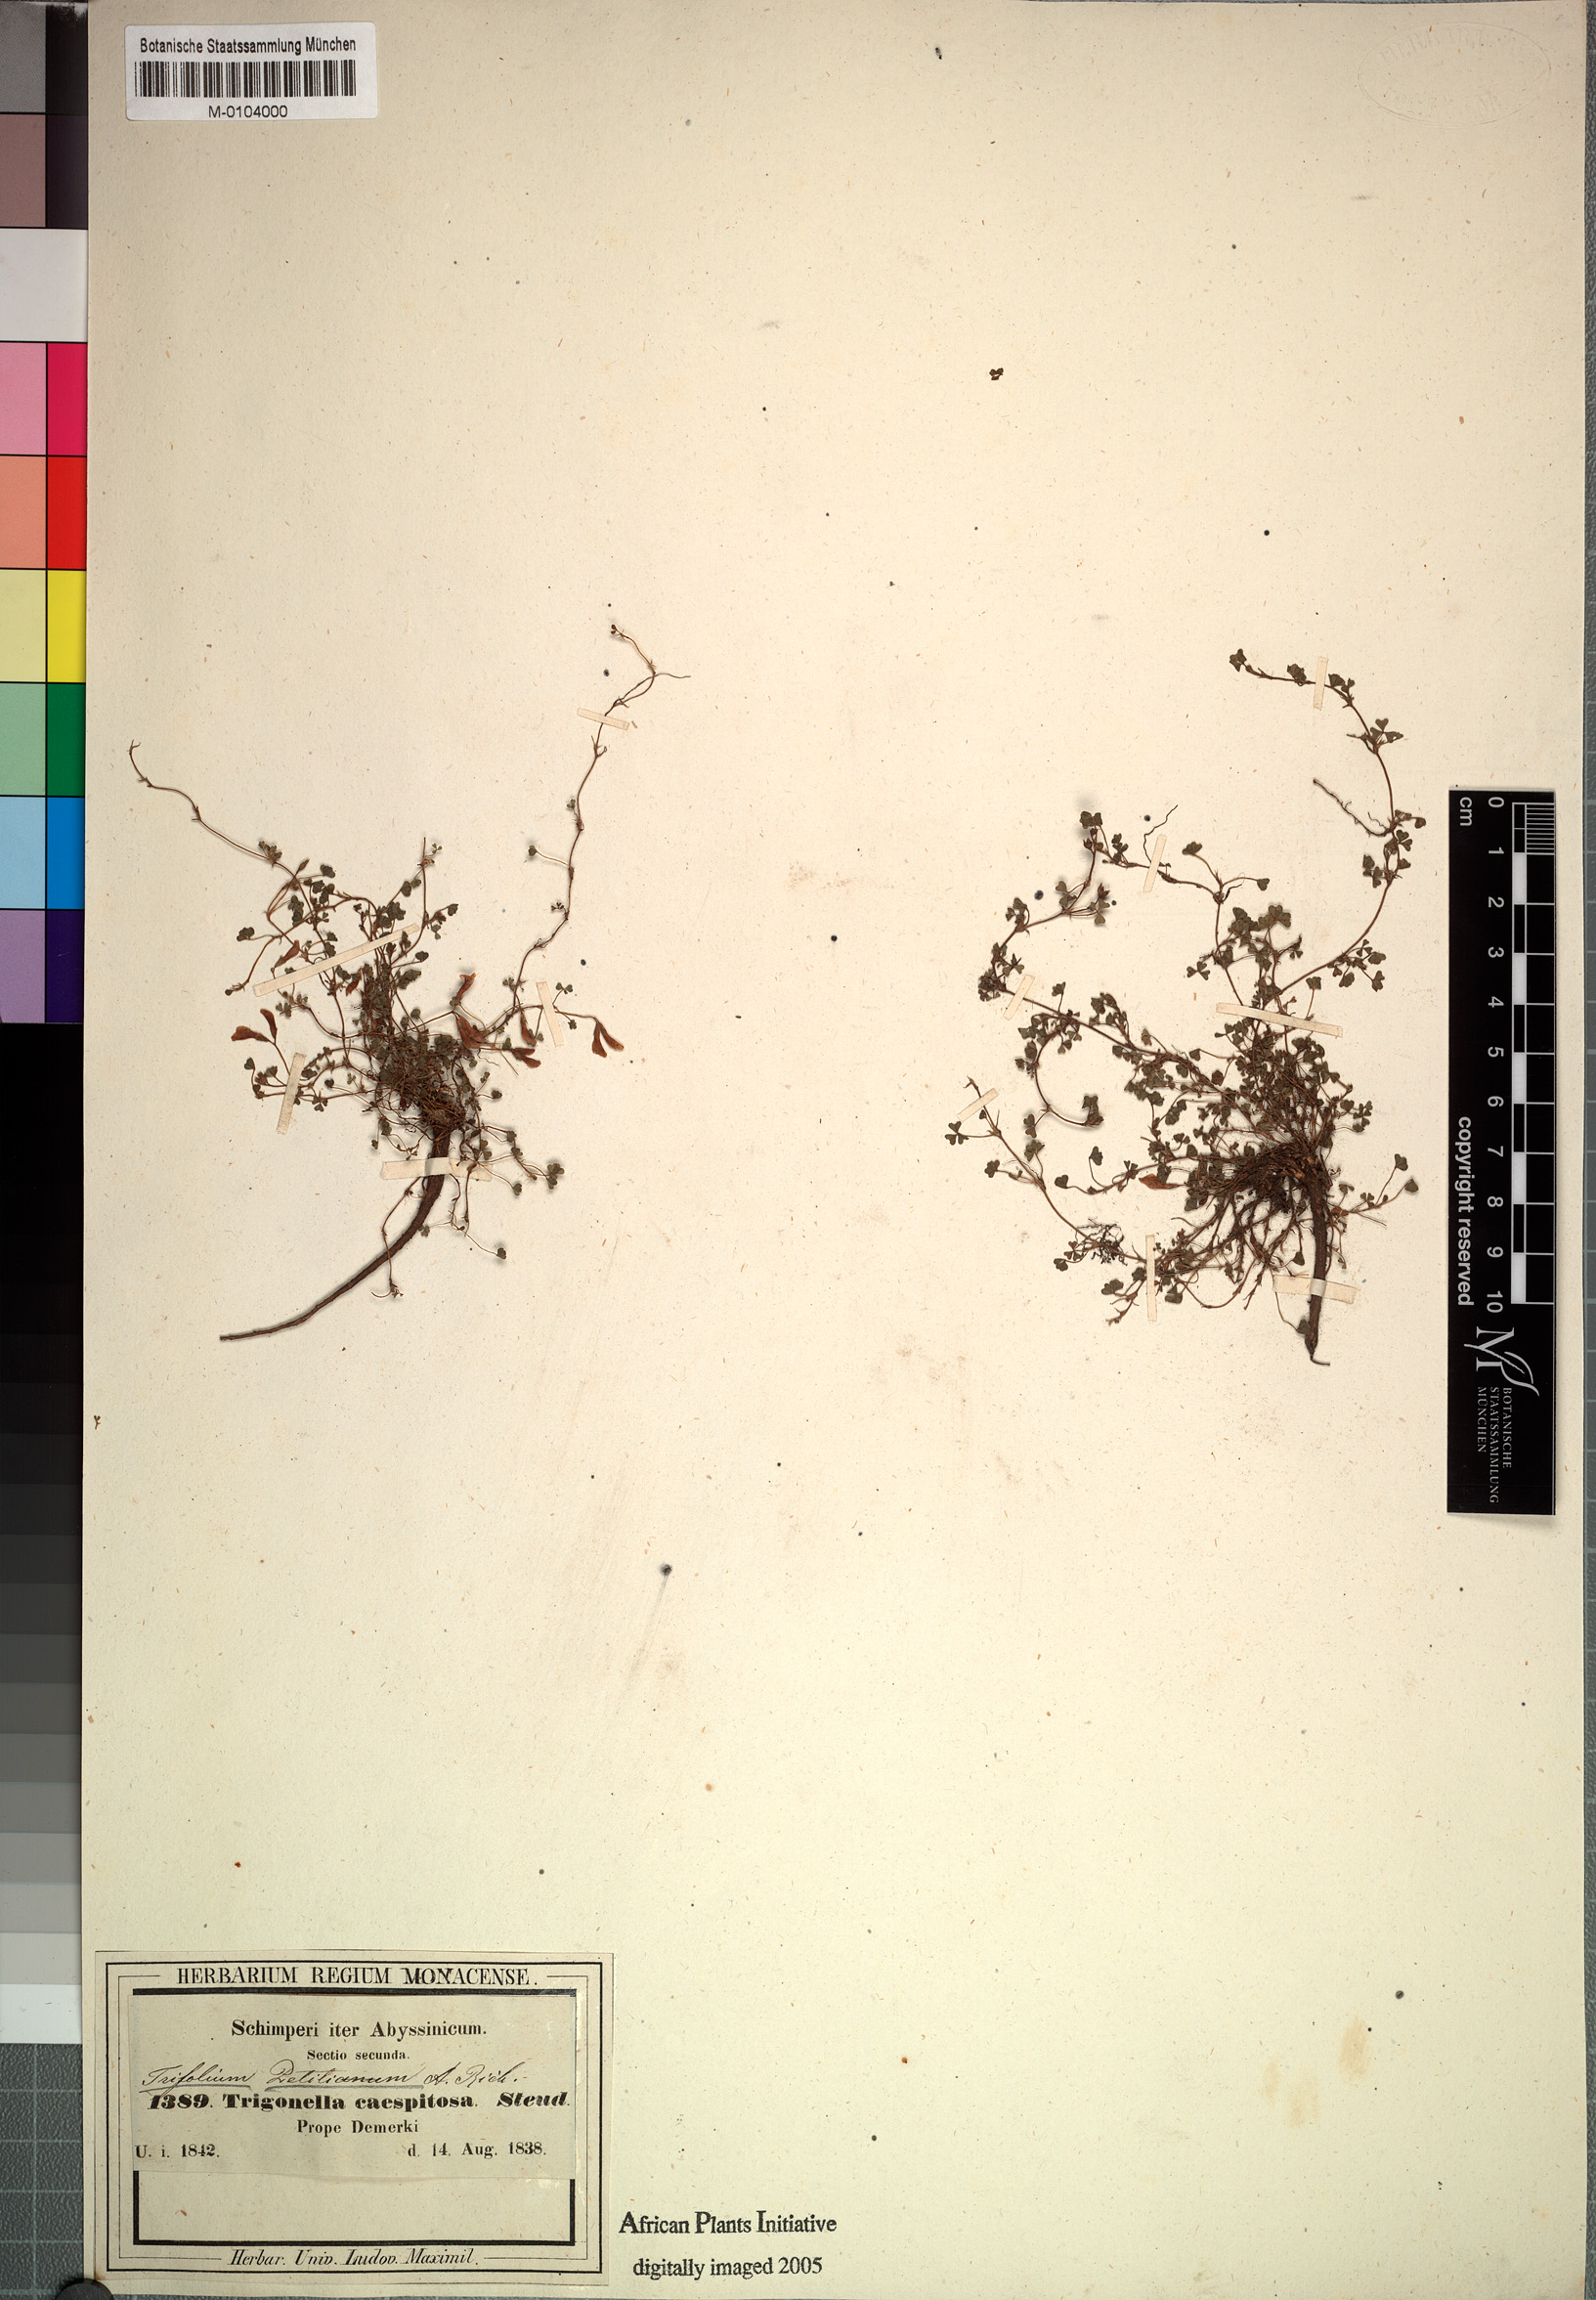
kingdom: Plantae
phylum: Tracheophyta
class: Magnoliopsida
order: Fabales
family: Fabaceae
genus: Trifolium
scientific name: Trifolium acaule
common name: Stemless clover
